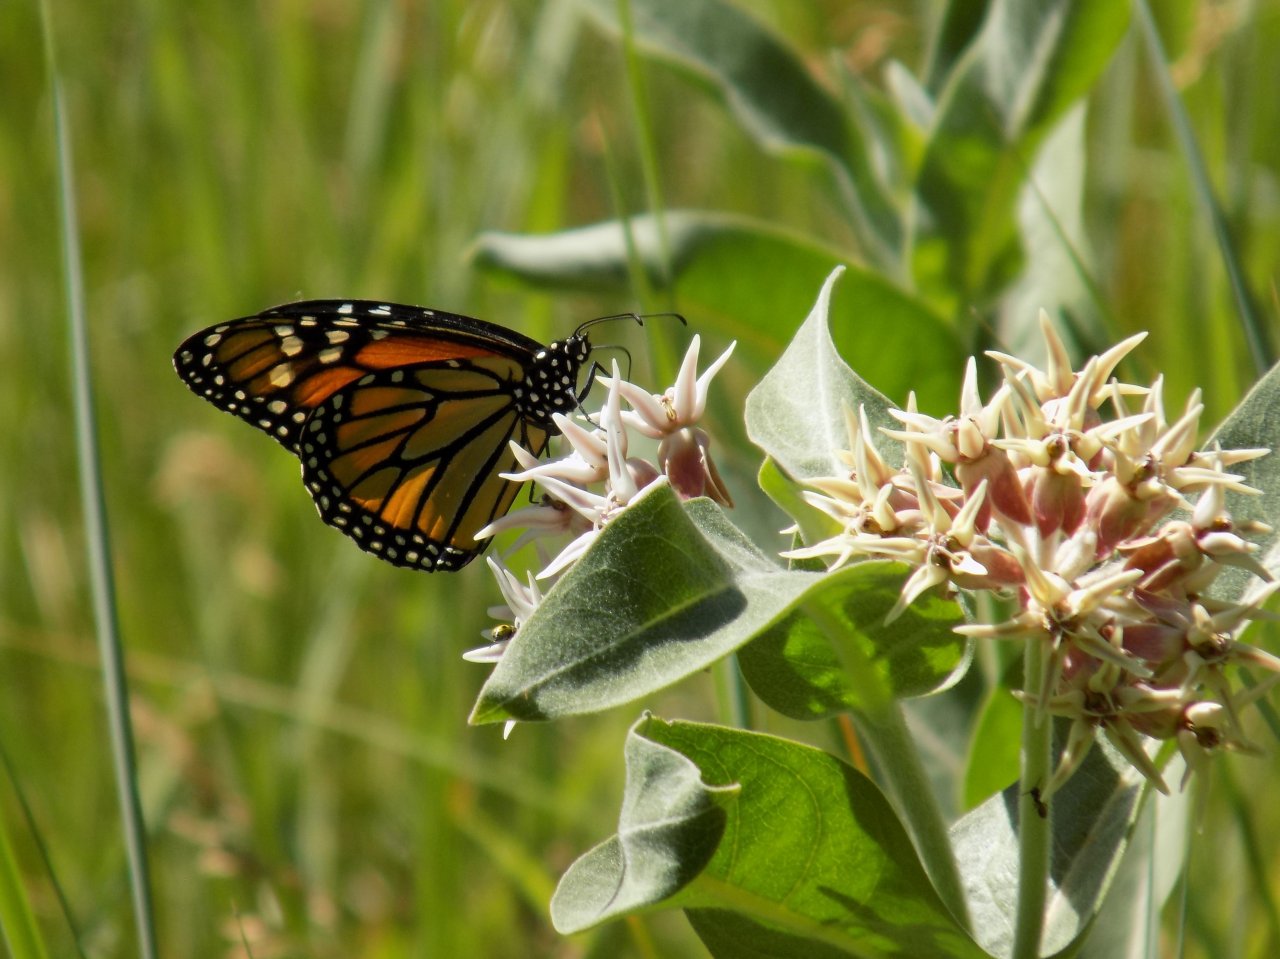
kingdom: Animalia
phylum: Arthropoda
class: Insecta
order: Lepidoptera
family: Nymphalidae
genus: Danaus
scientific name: Danaus plexippus
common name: Monarch
